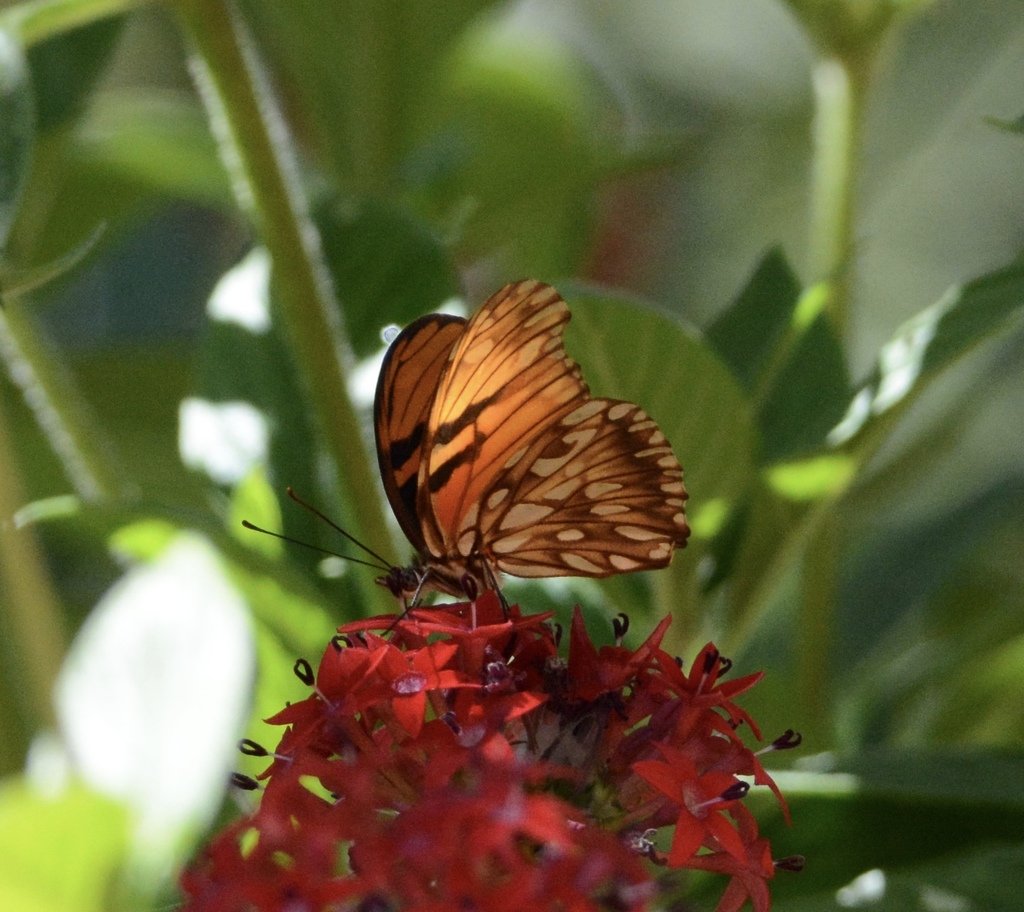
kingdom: Animalia
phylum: Arthropoda
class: Insecta
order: Lepidoptera
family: Nymphalidae
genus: Dione
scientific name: Dione juno
